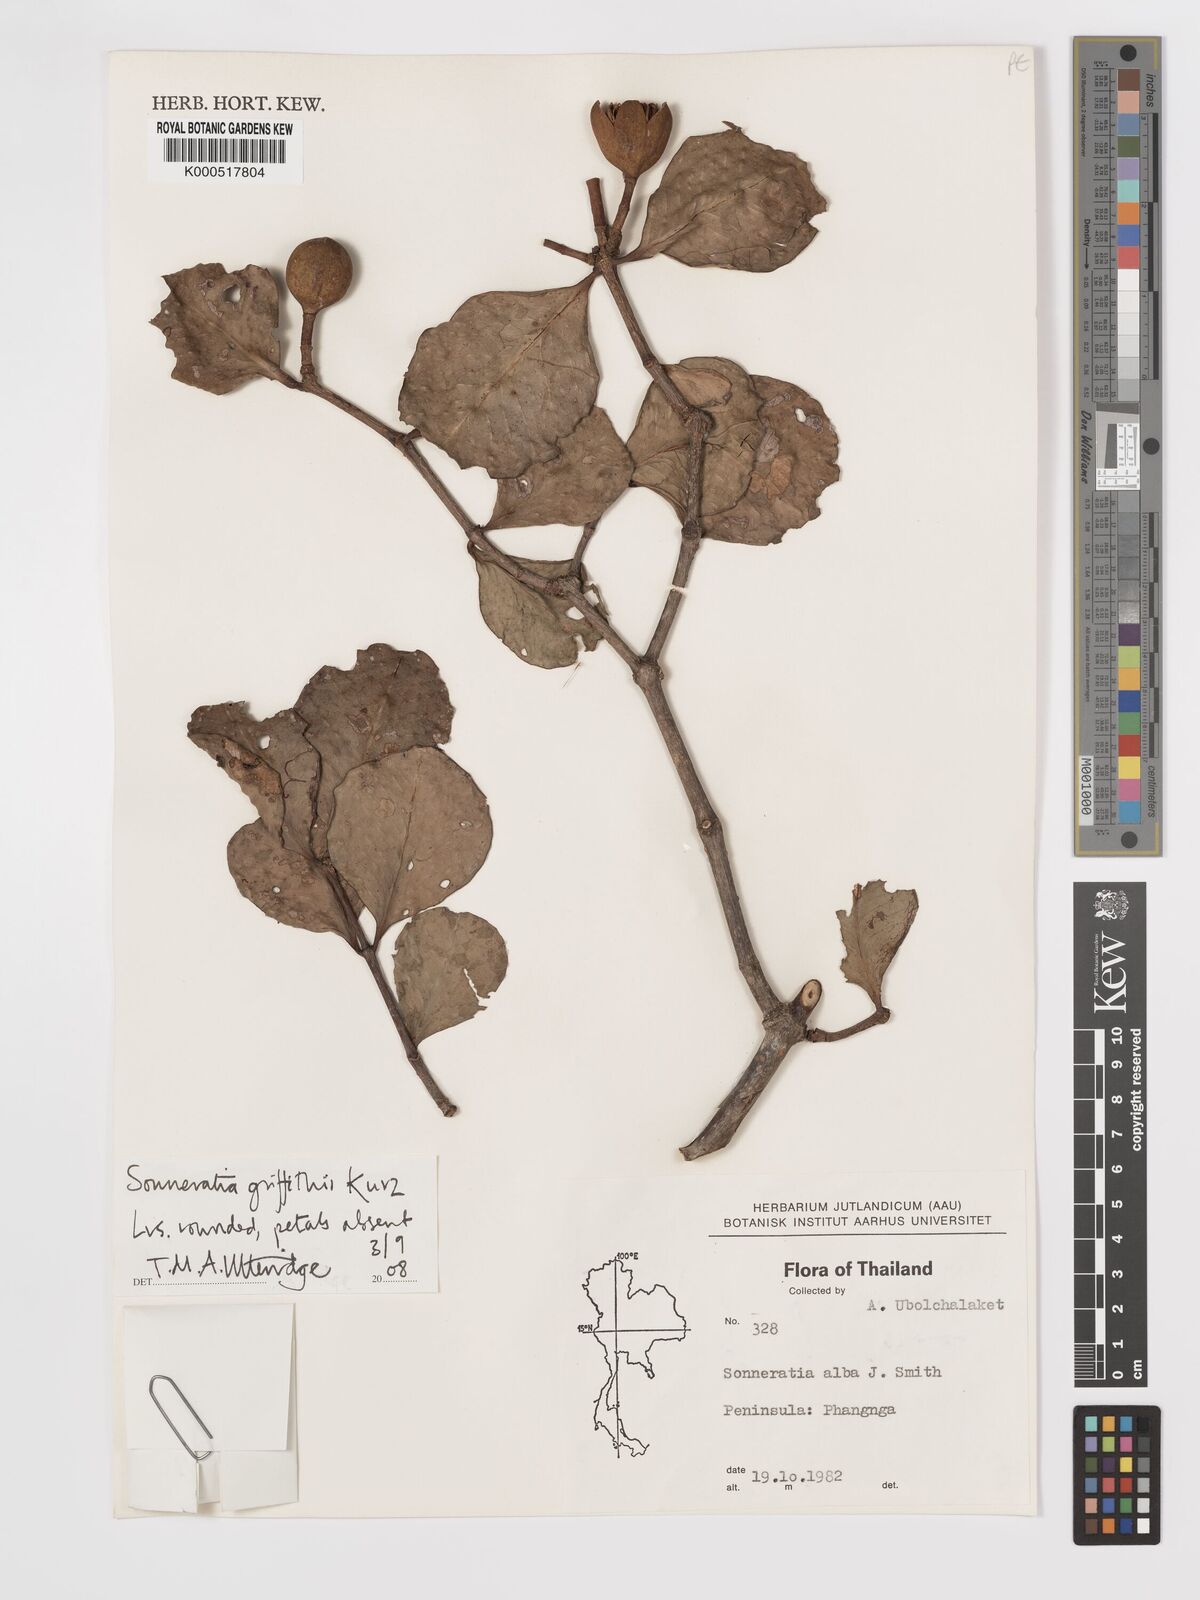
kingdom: Plantae
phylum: Tracheophyta
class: Magnoliopsida
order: Myrtales
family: Lythraceae
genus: Sonneratia
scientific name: Sonneratia griffithii
